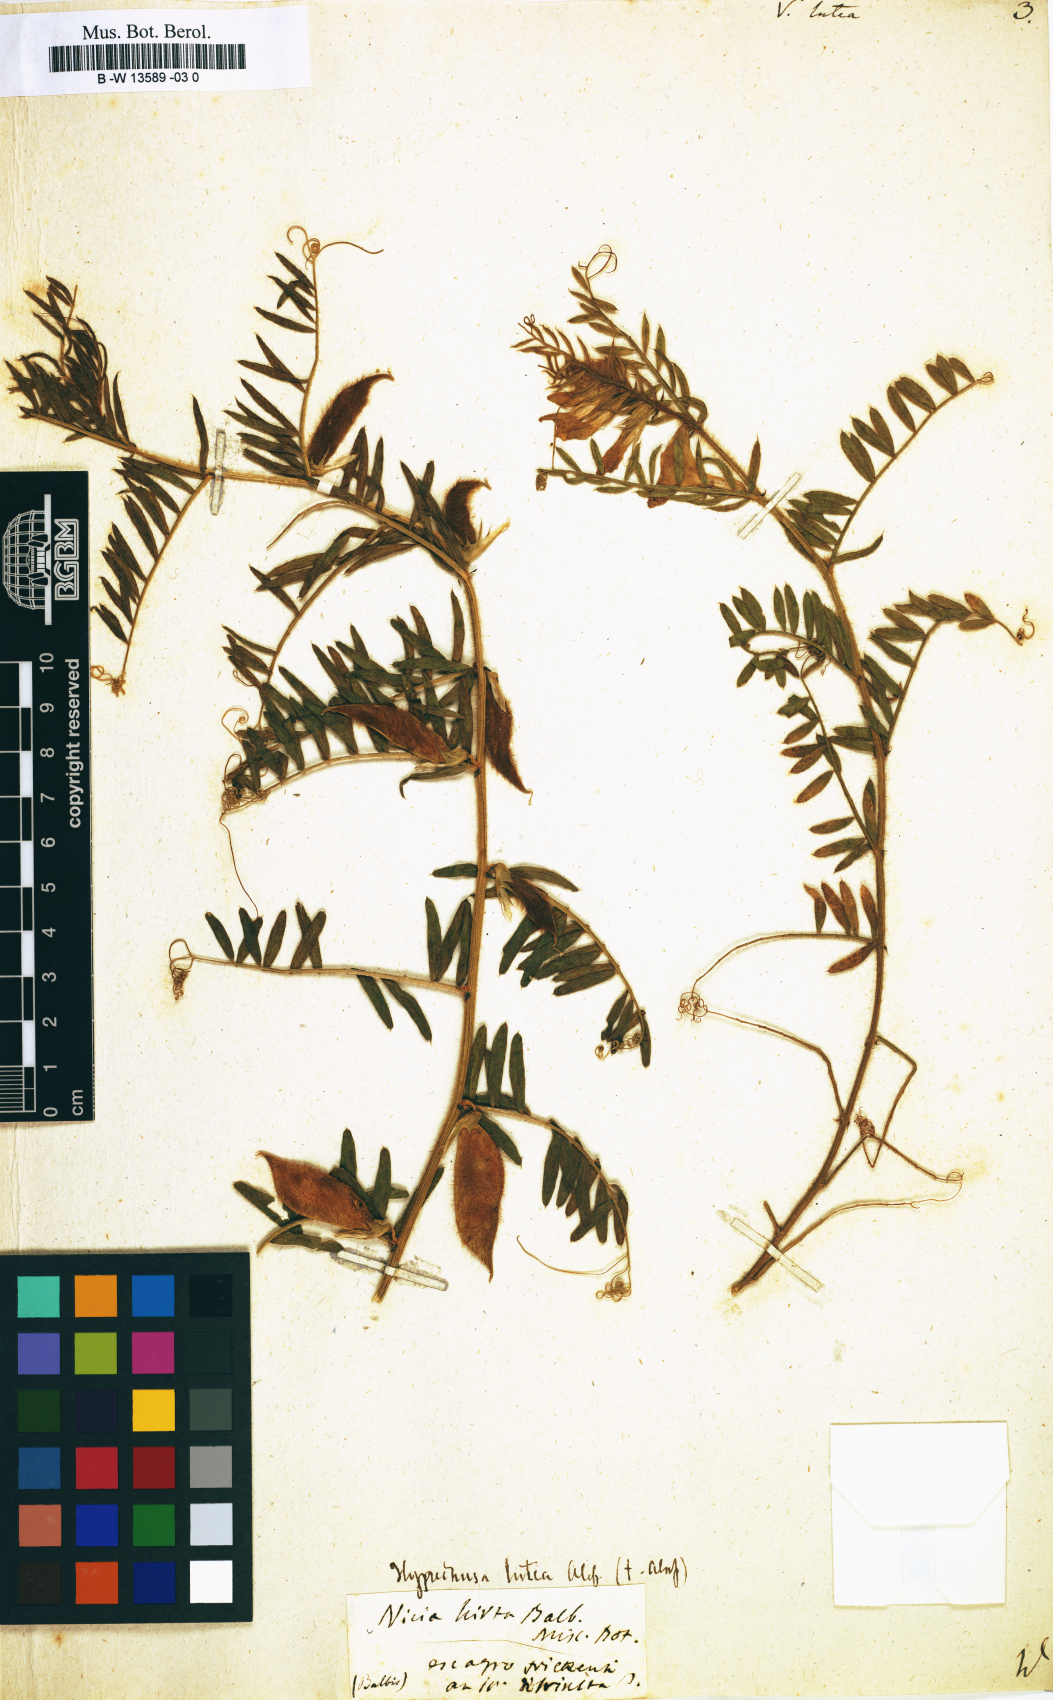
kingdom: Plantae
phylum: Tracheophyta
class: Magnoliopsida
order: Fabales
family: Fabaceae
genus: Vicia
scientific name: Vicia lutea
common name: Smooth yellow vetch
